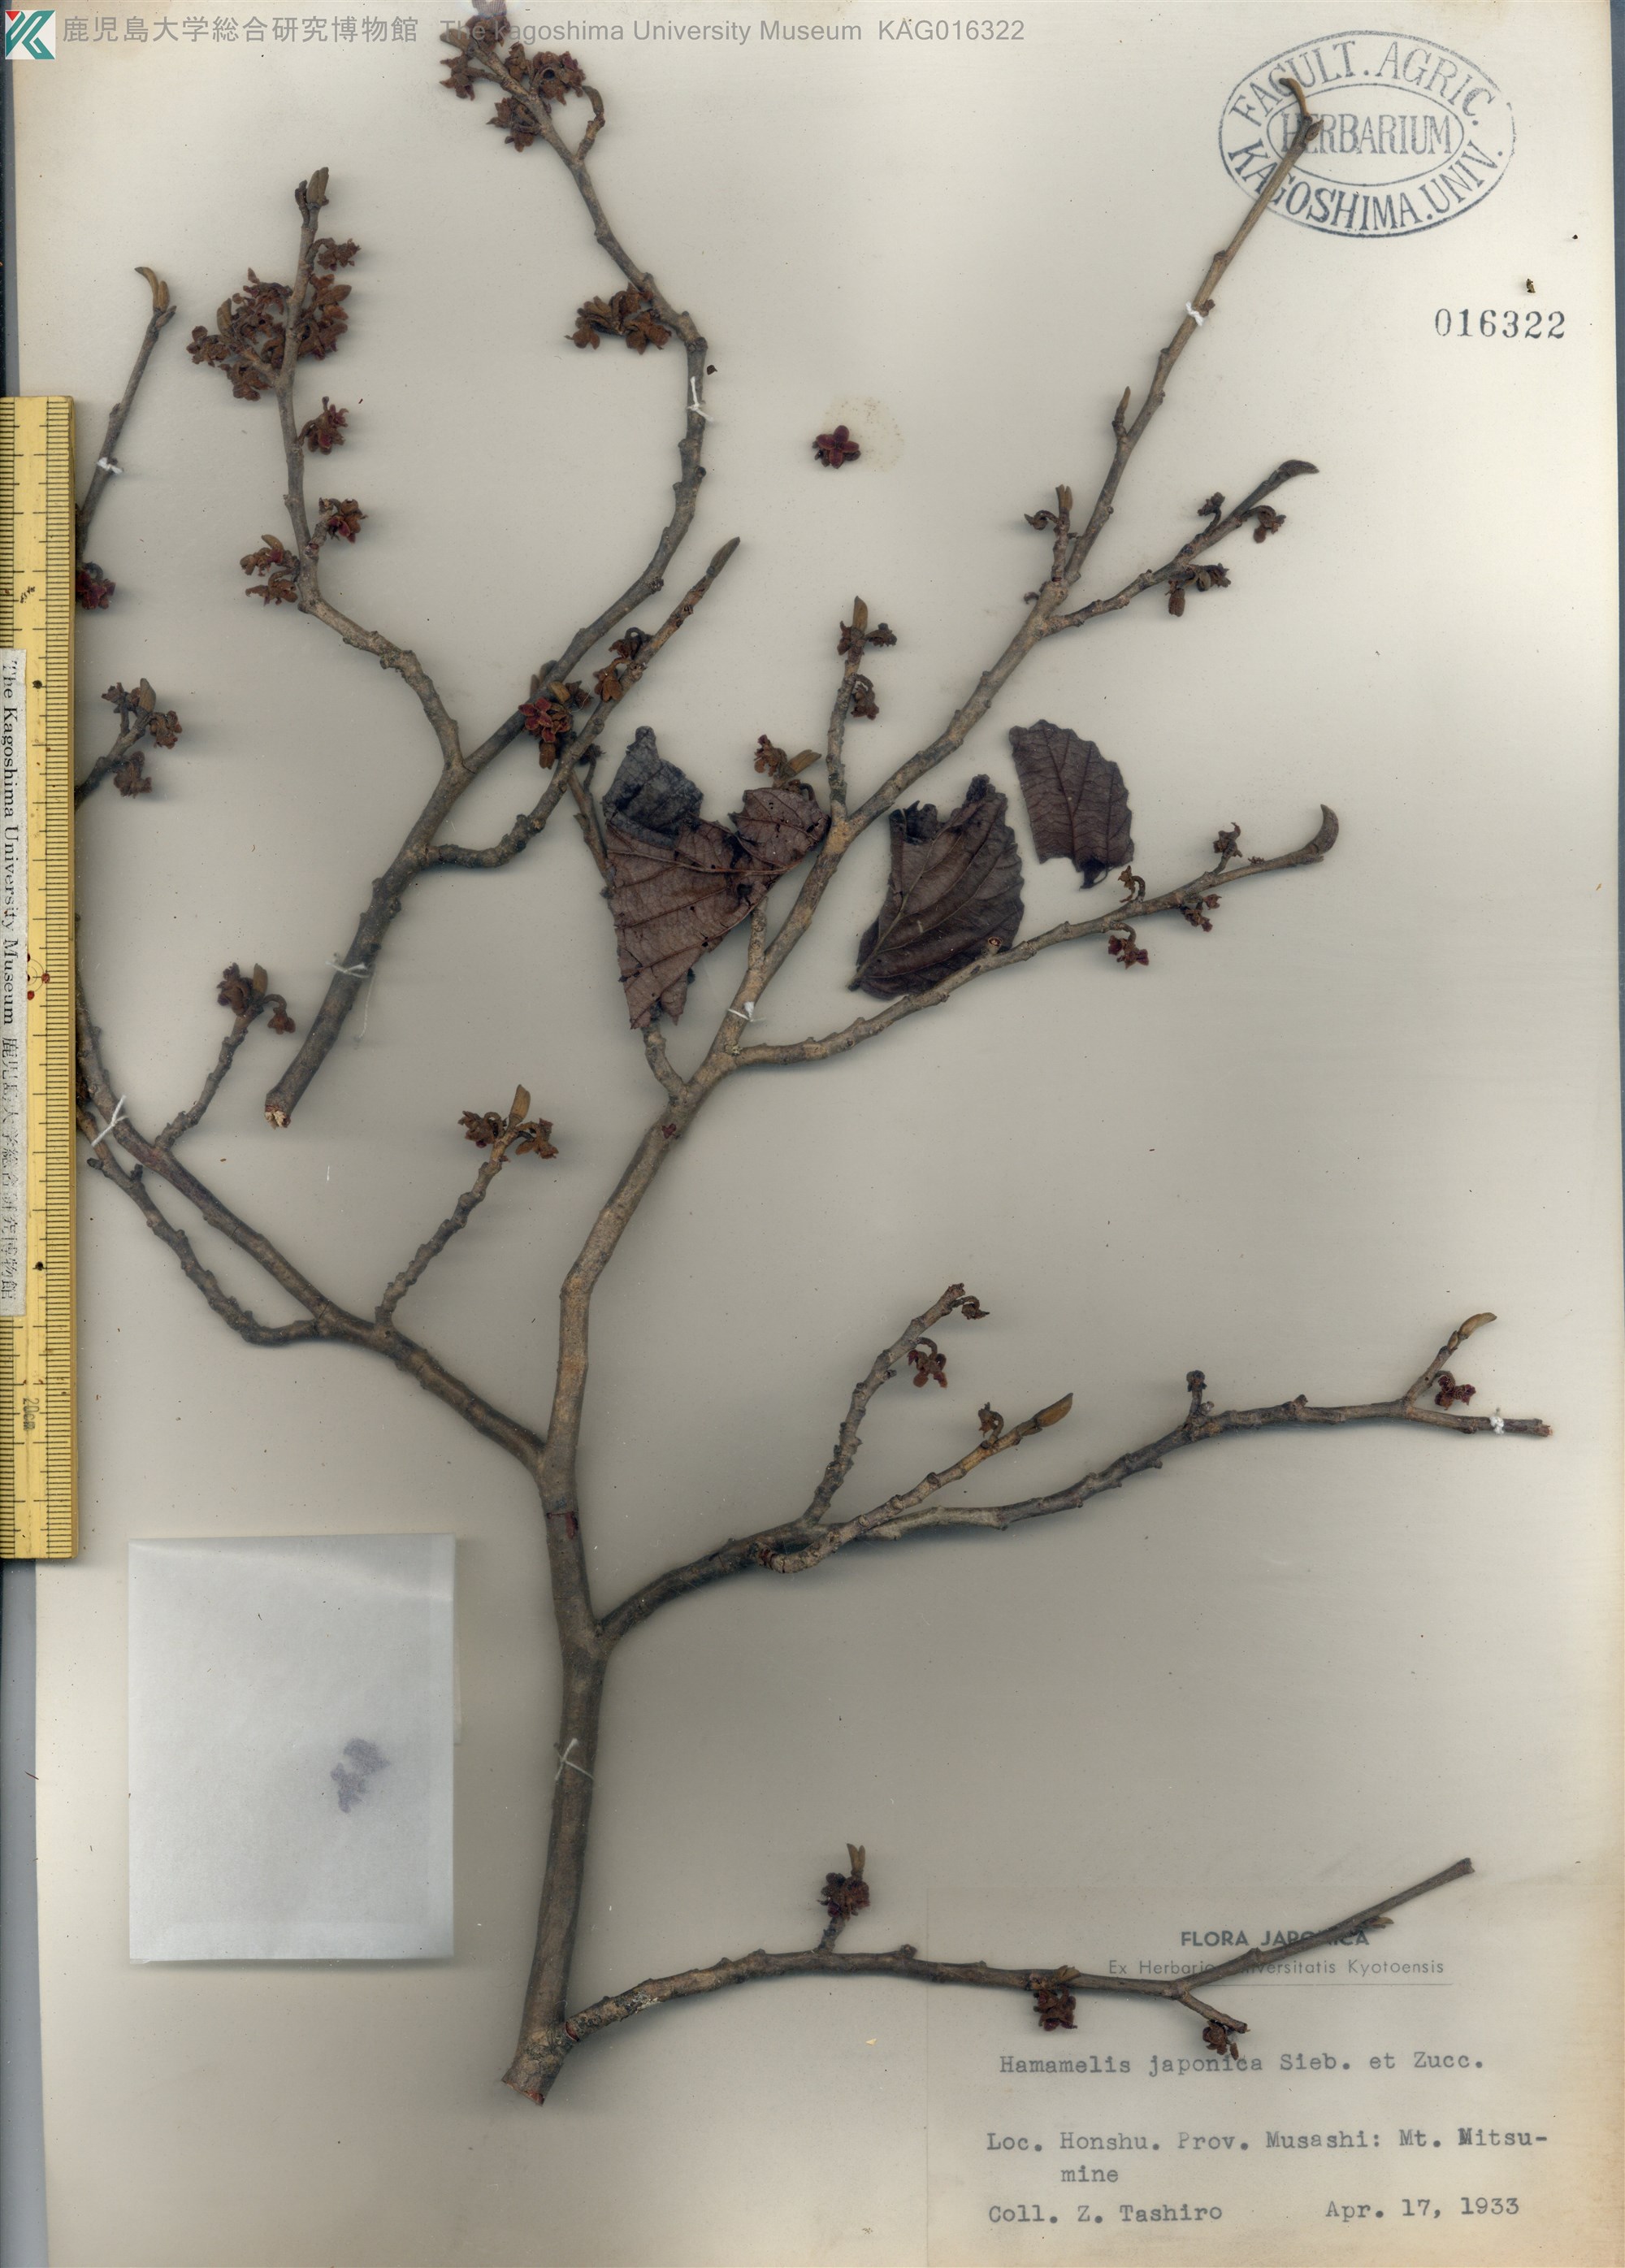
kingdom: Plantae
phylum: Tracheophyta
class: Magnoliopsida
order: Saxifragales
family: Hamamelidaceae
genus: Hamamelis
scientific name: Hamamelis japonica
